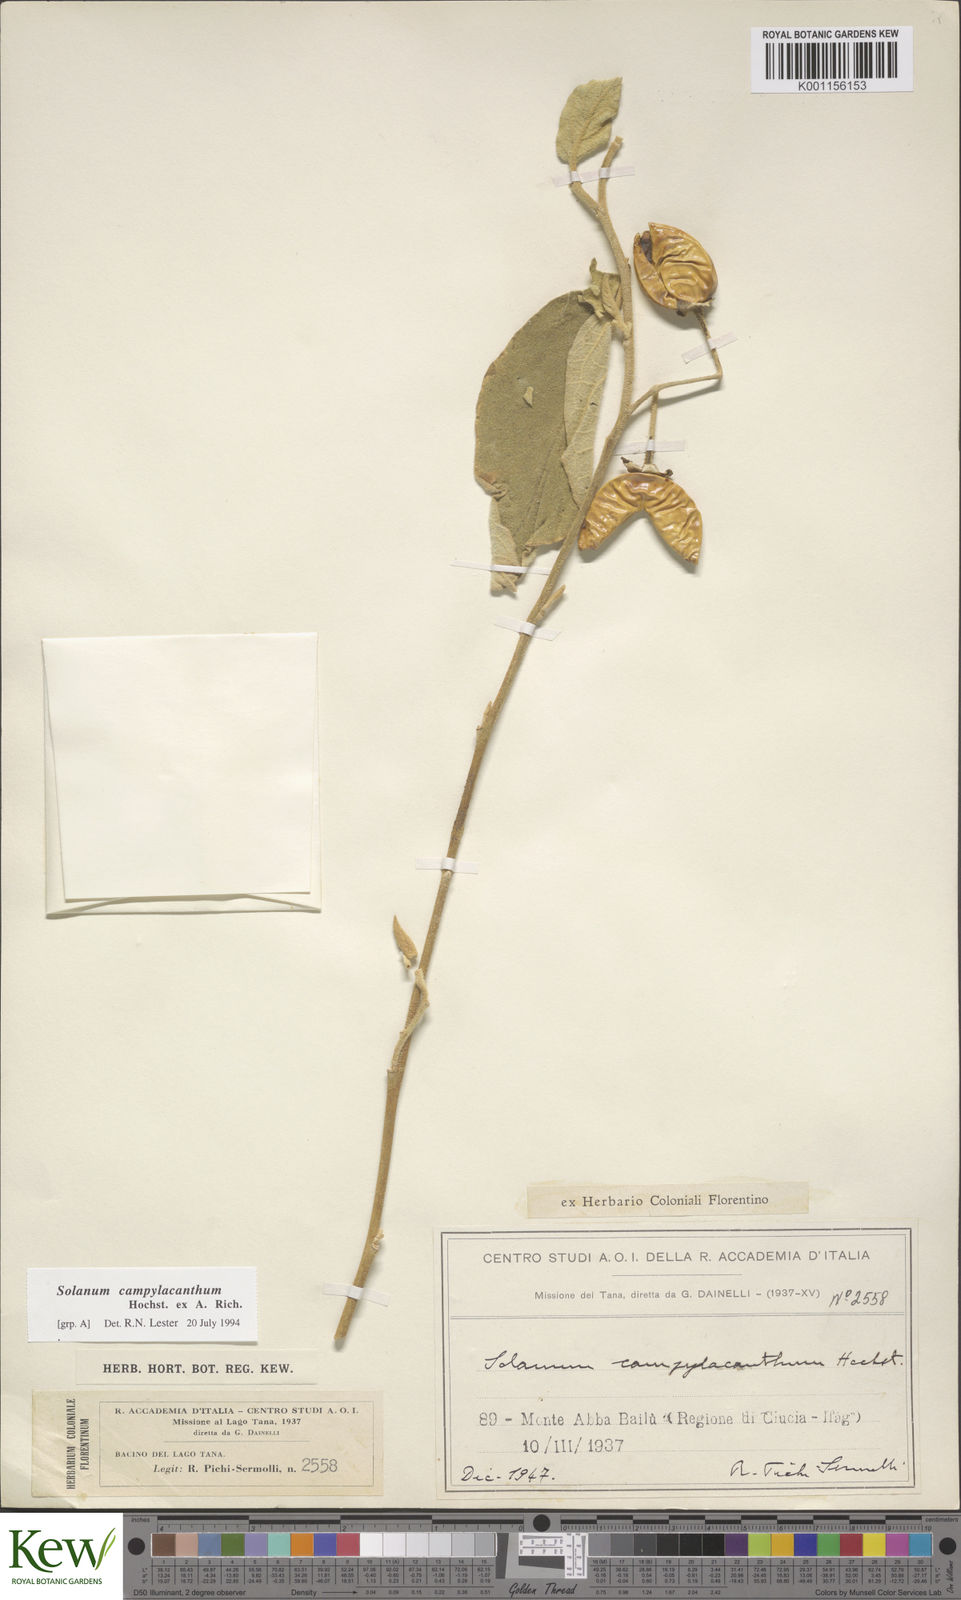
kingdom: Plantae
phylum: Tracheophyta
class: Magnoliopsida
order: Solanales
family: Solanaceae
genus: Solanum
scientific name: Solanum campylacanthum
